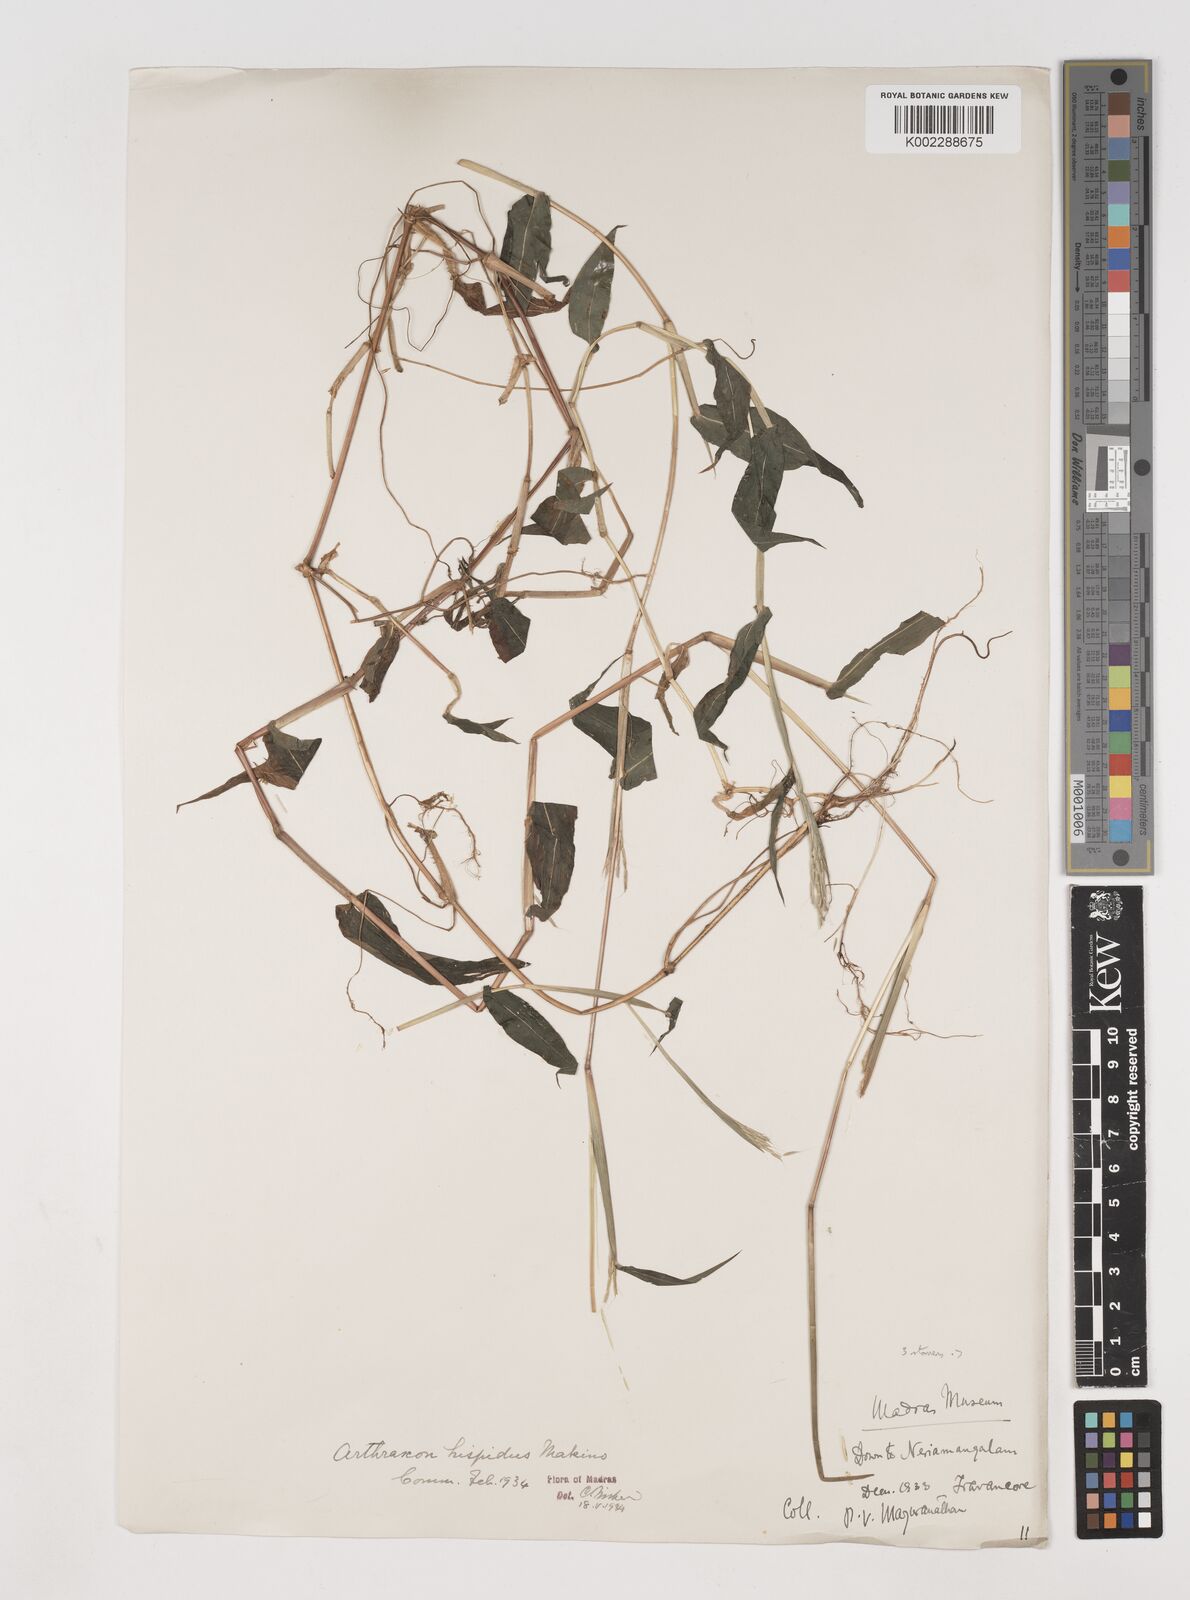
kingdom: Plantae
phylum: Tracheophyta
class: Liliopsida
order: Poales
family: Poaceae
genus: Arthraxon
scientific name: Arthraxon nudus
